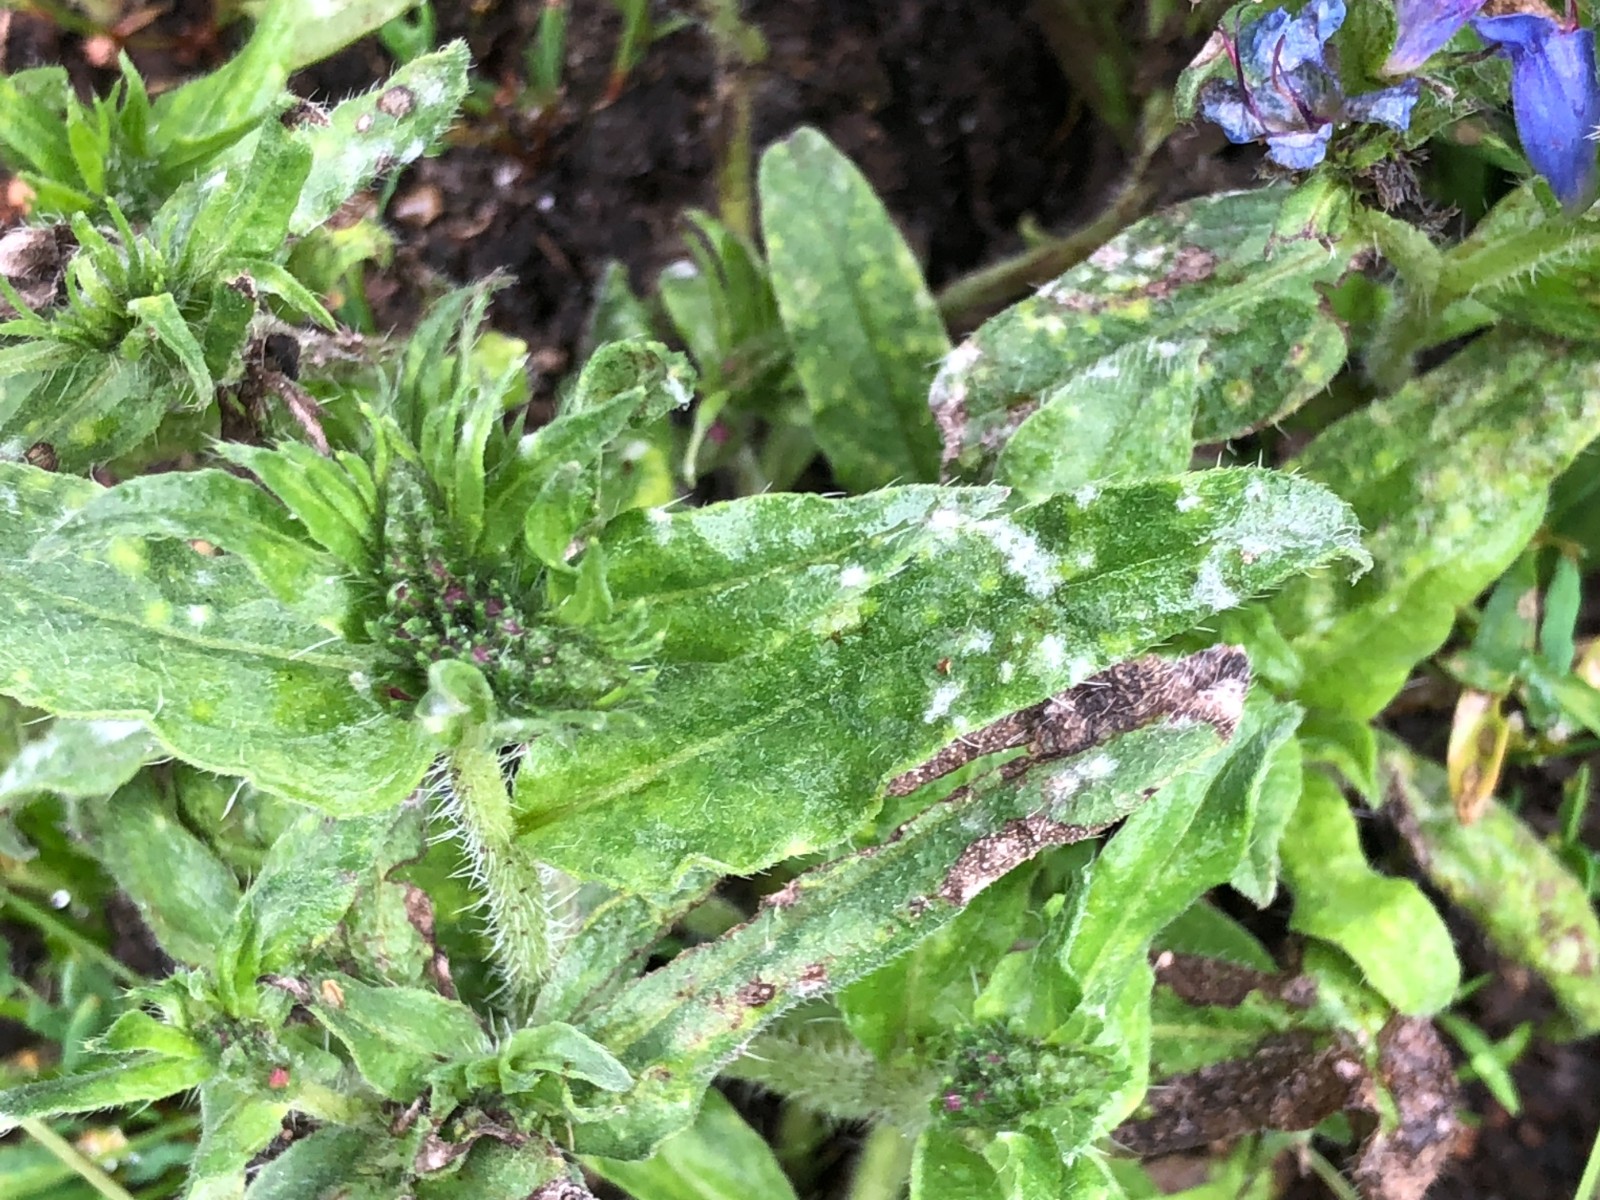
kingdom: Fungi
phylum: Ascomycota
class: Leotiomycetes
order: Helotiales
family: Erysiphaceae
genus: Golovinomyces
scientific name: Golovinomyces asperifolii
